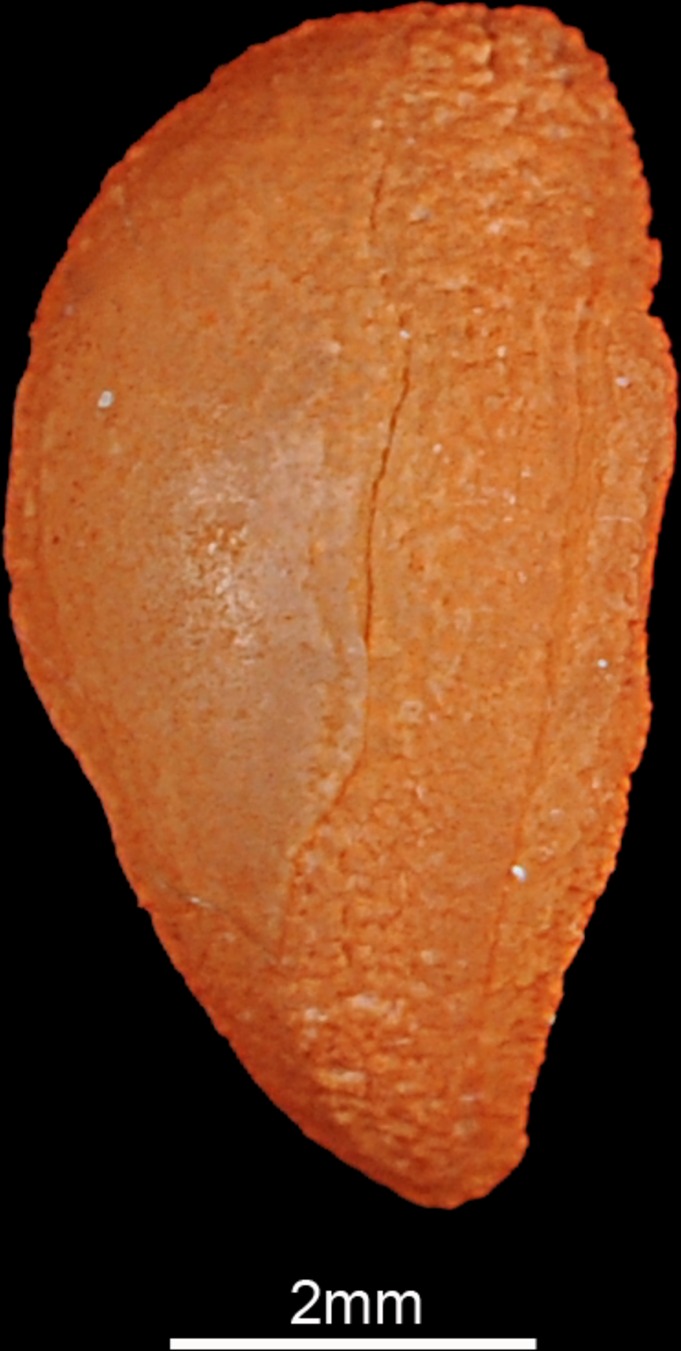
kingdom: Animalia
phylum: Chordata
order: Perciformes
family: Sillaginidae
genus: Sillago
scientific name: Sillago sihama
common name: Silver sillago
